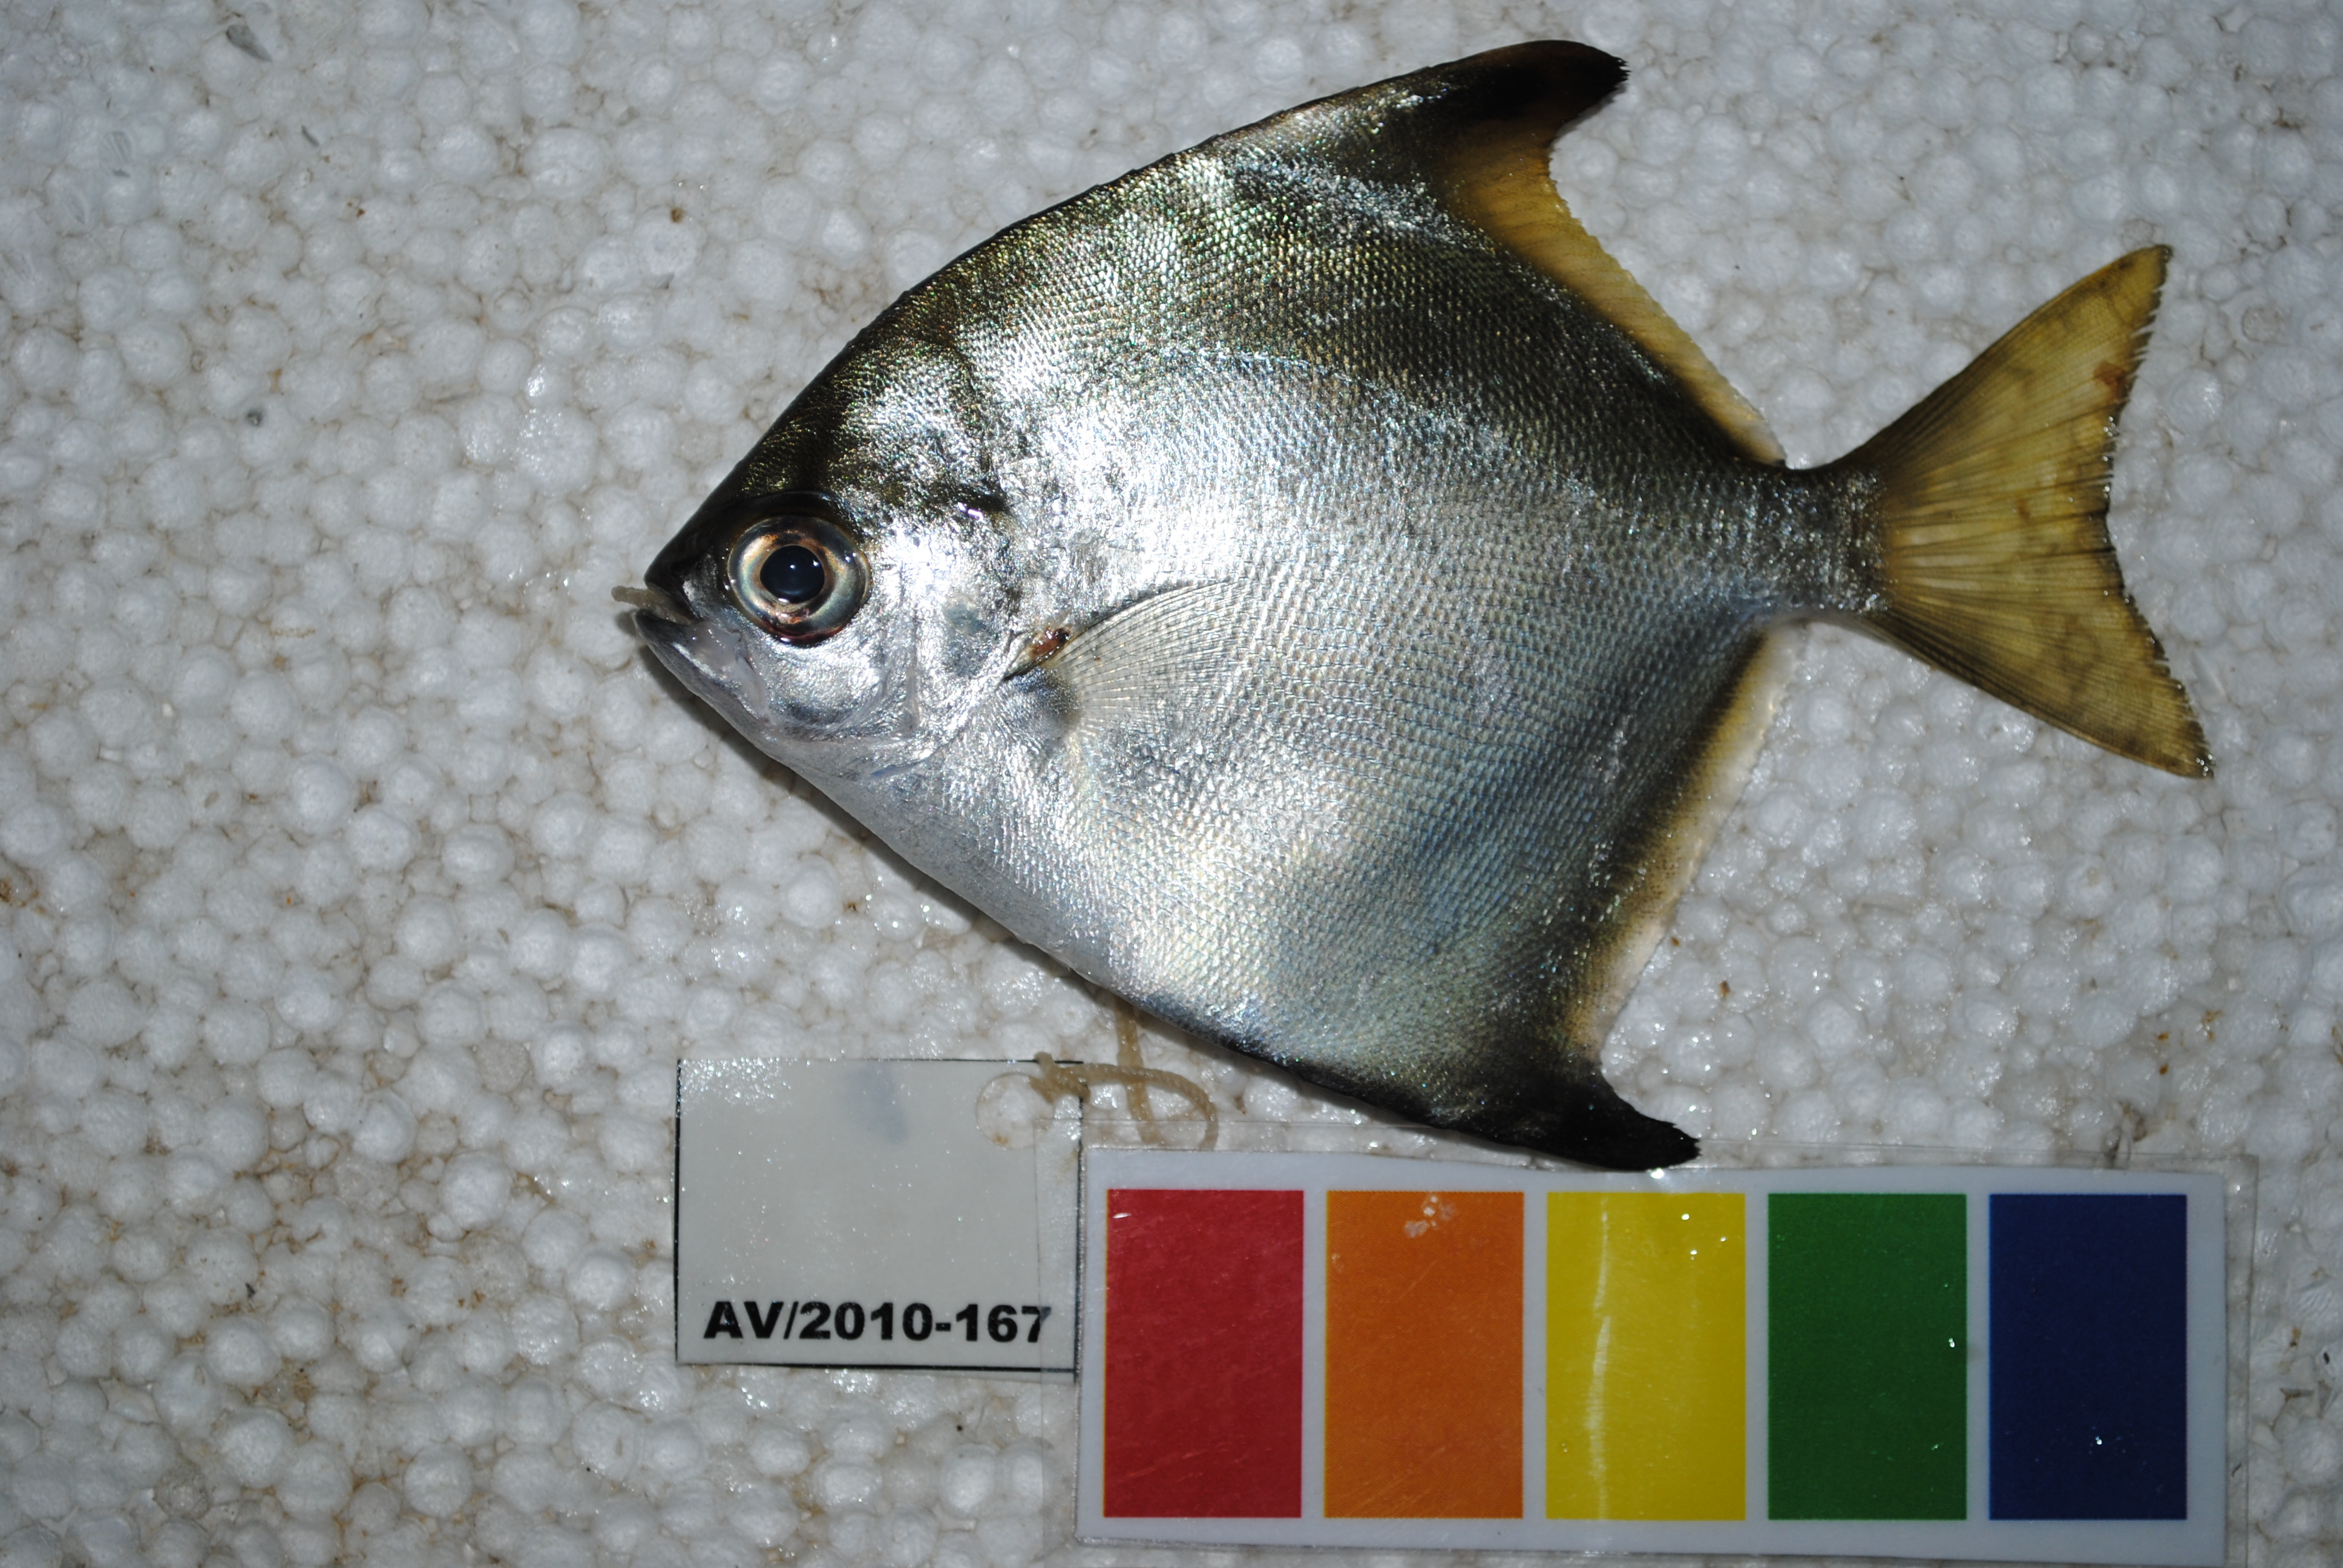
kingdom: Animalia
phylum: Chordata
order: Perciformes
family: Monodactylidae
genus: Monodactylus
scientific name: Monodactylus argenteus
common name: Silver moony
